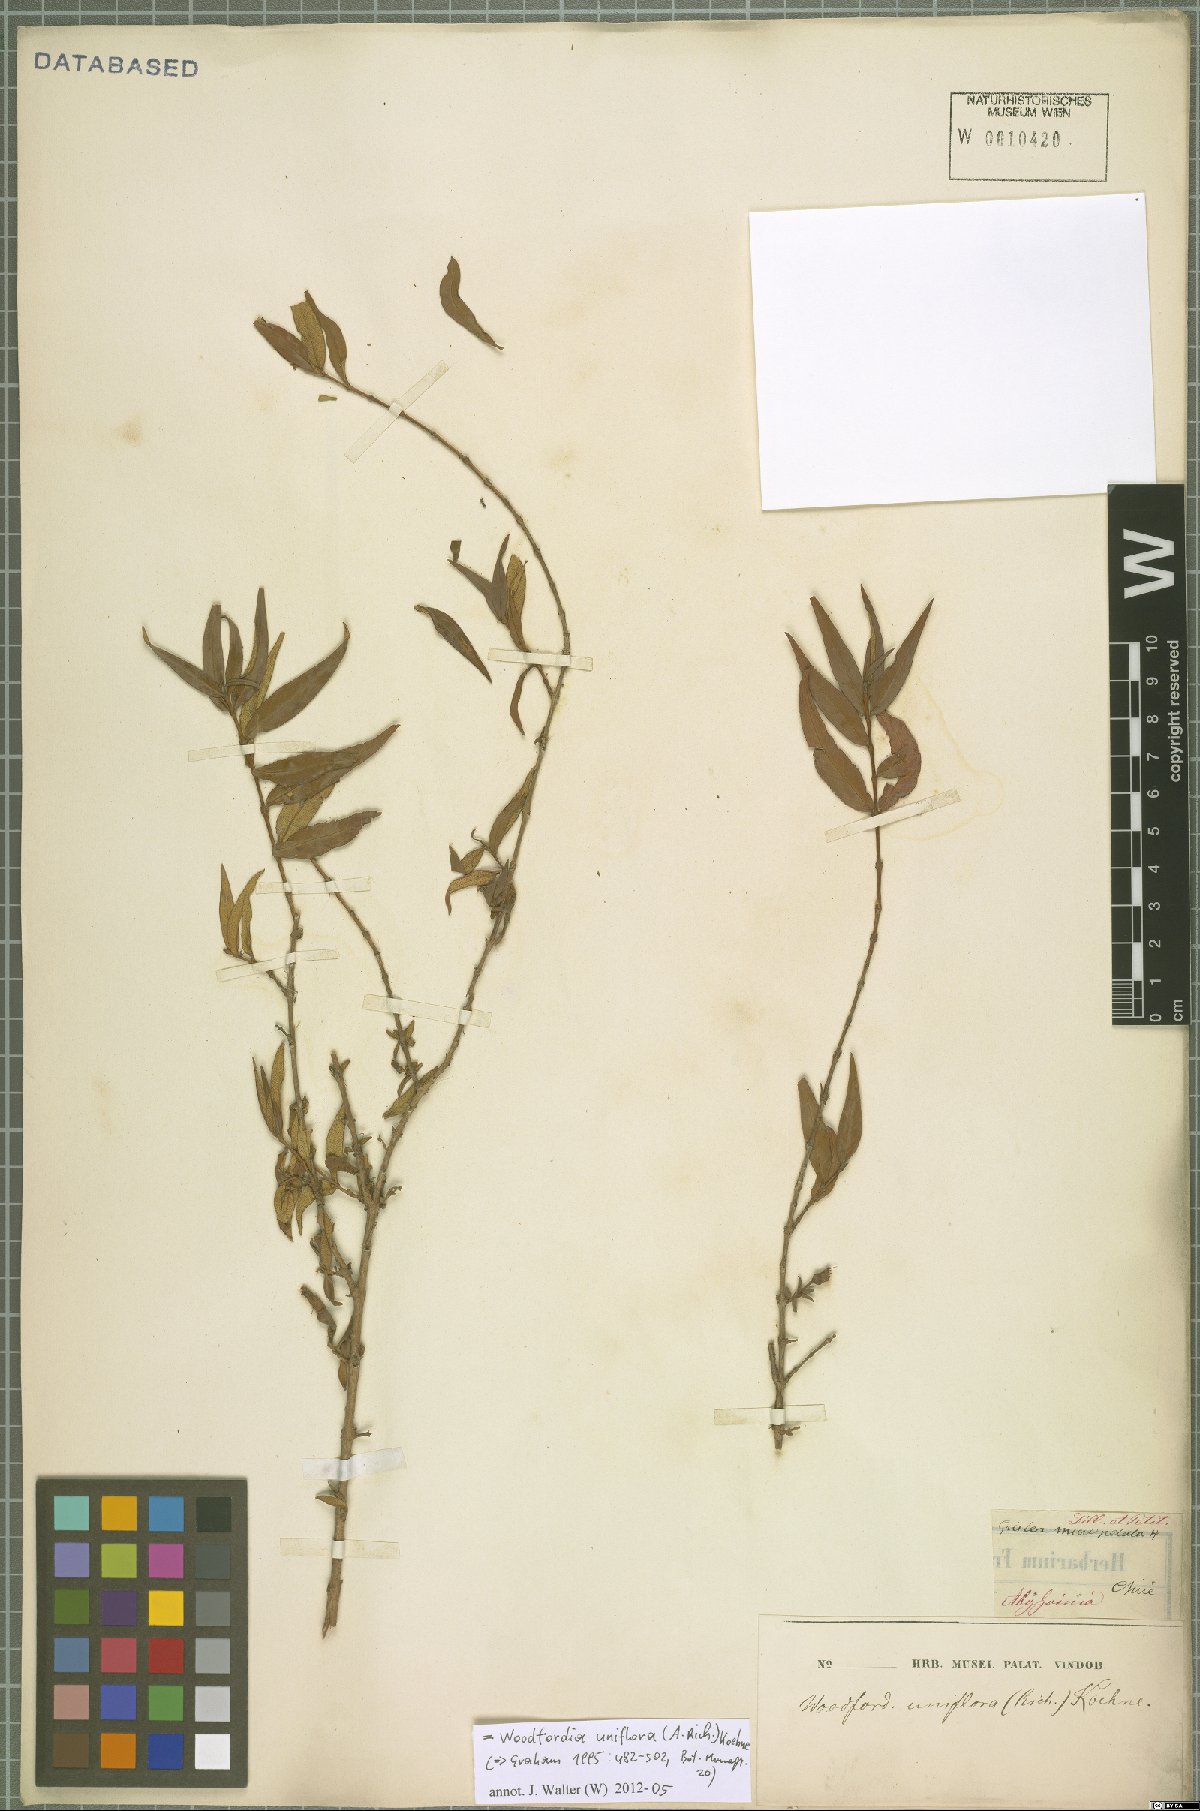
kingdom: Plantae
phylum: Tracheophyta
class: Magnoliopsida
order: Myrtales
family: Lythraceae
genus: Woodfordia
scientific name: Woodfordia uniflora
